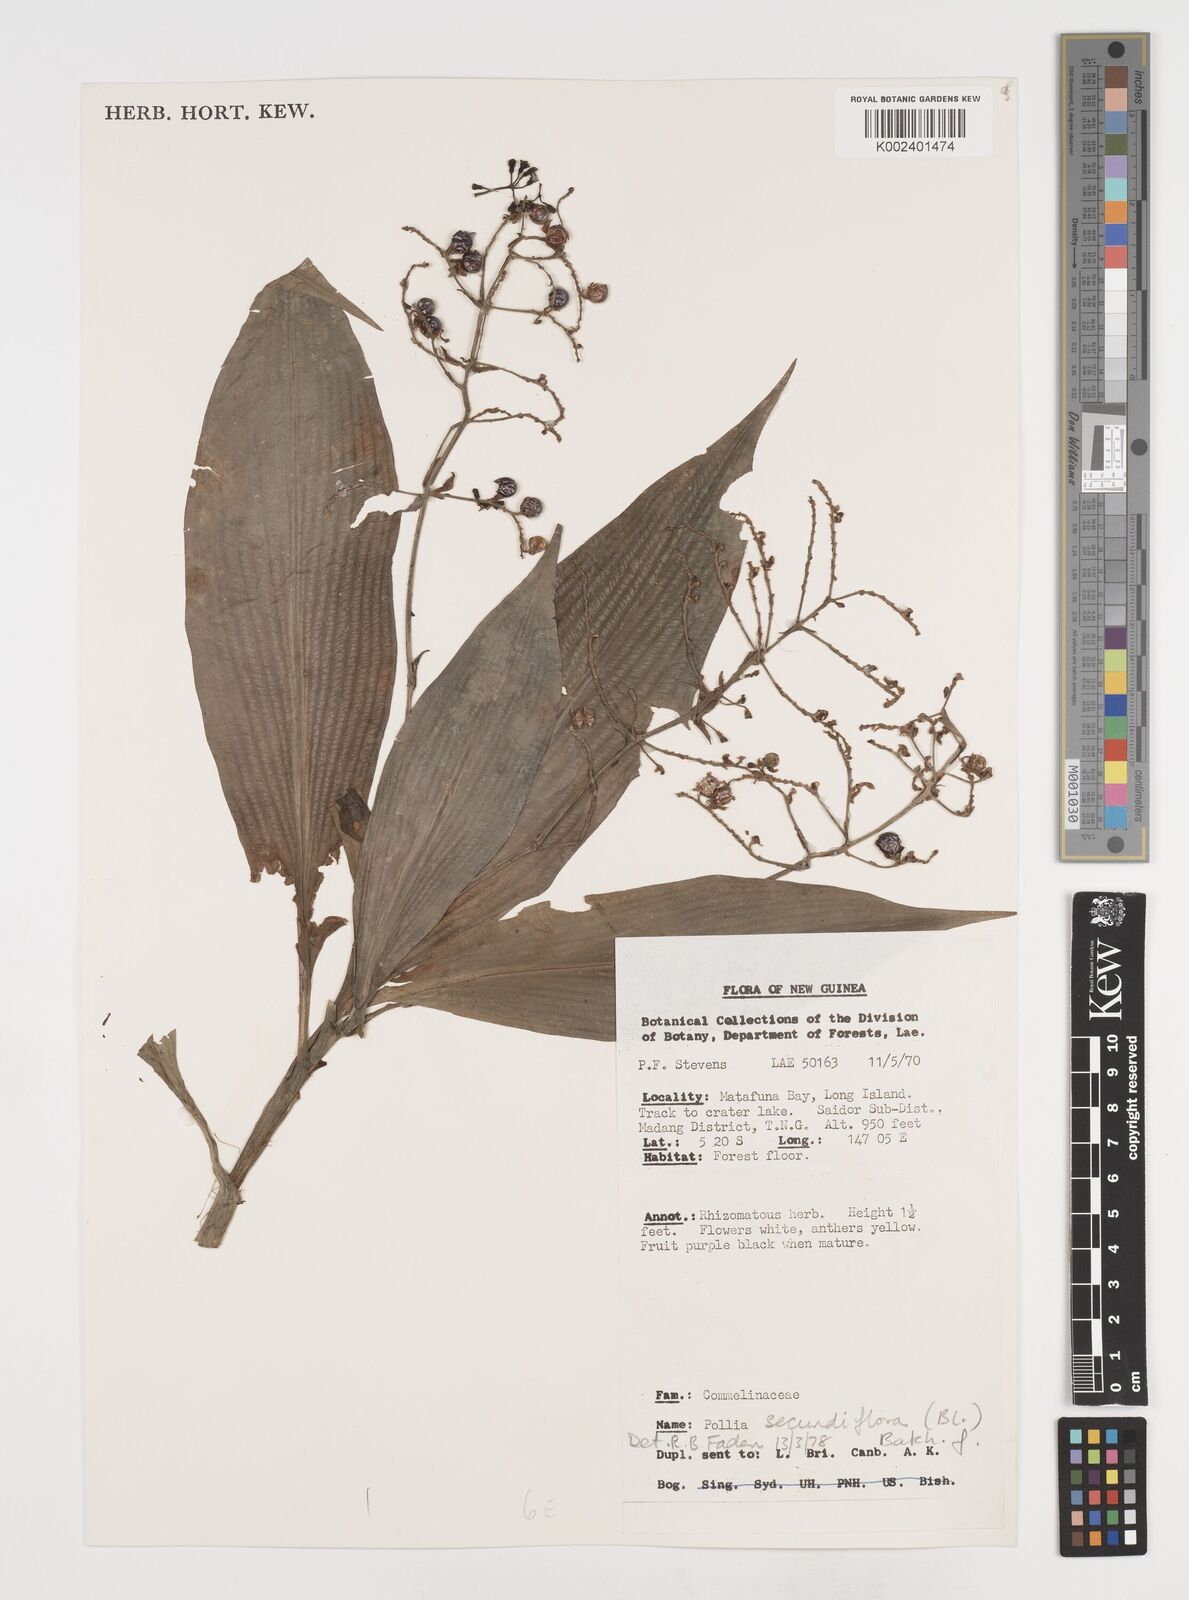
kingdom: Plantae
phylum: Tracheophyta
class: Liliopsida
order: Commelinales
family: Commelinaceae
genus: Pollia
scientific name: Pollia secundiflora
